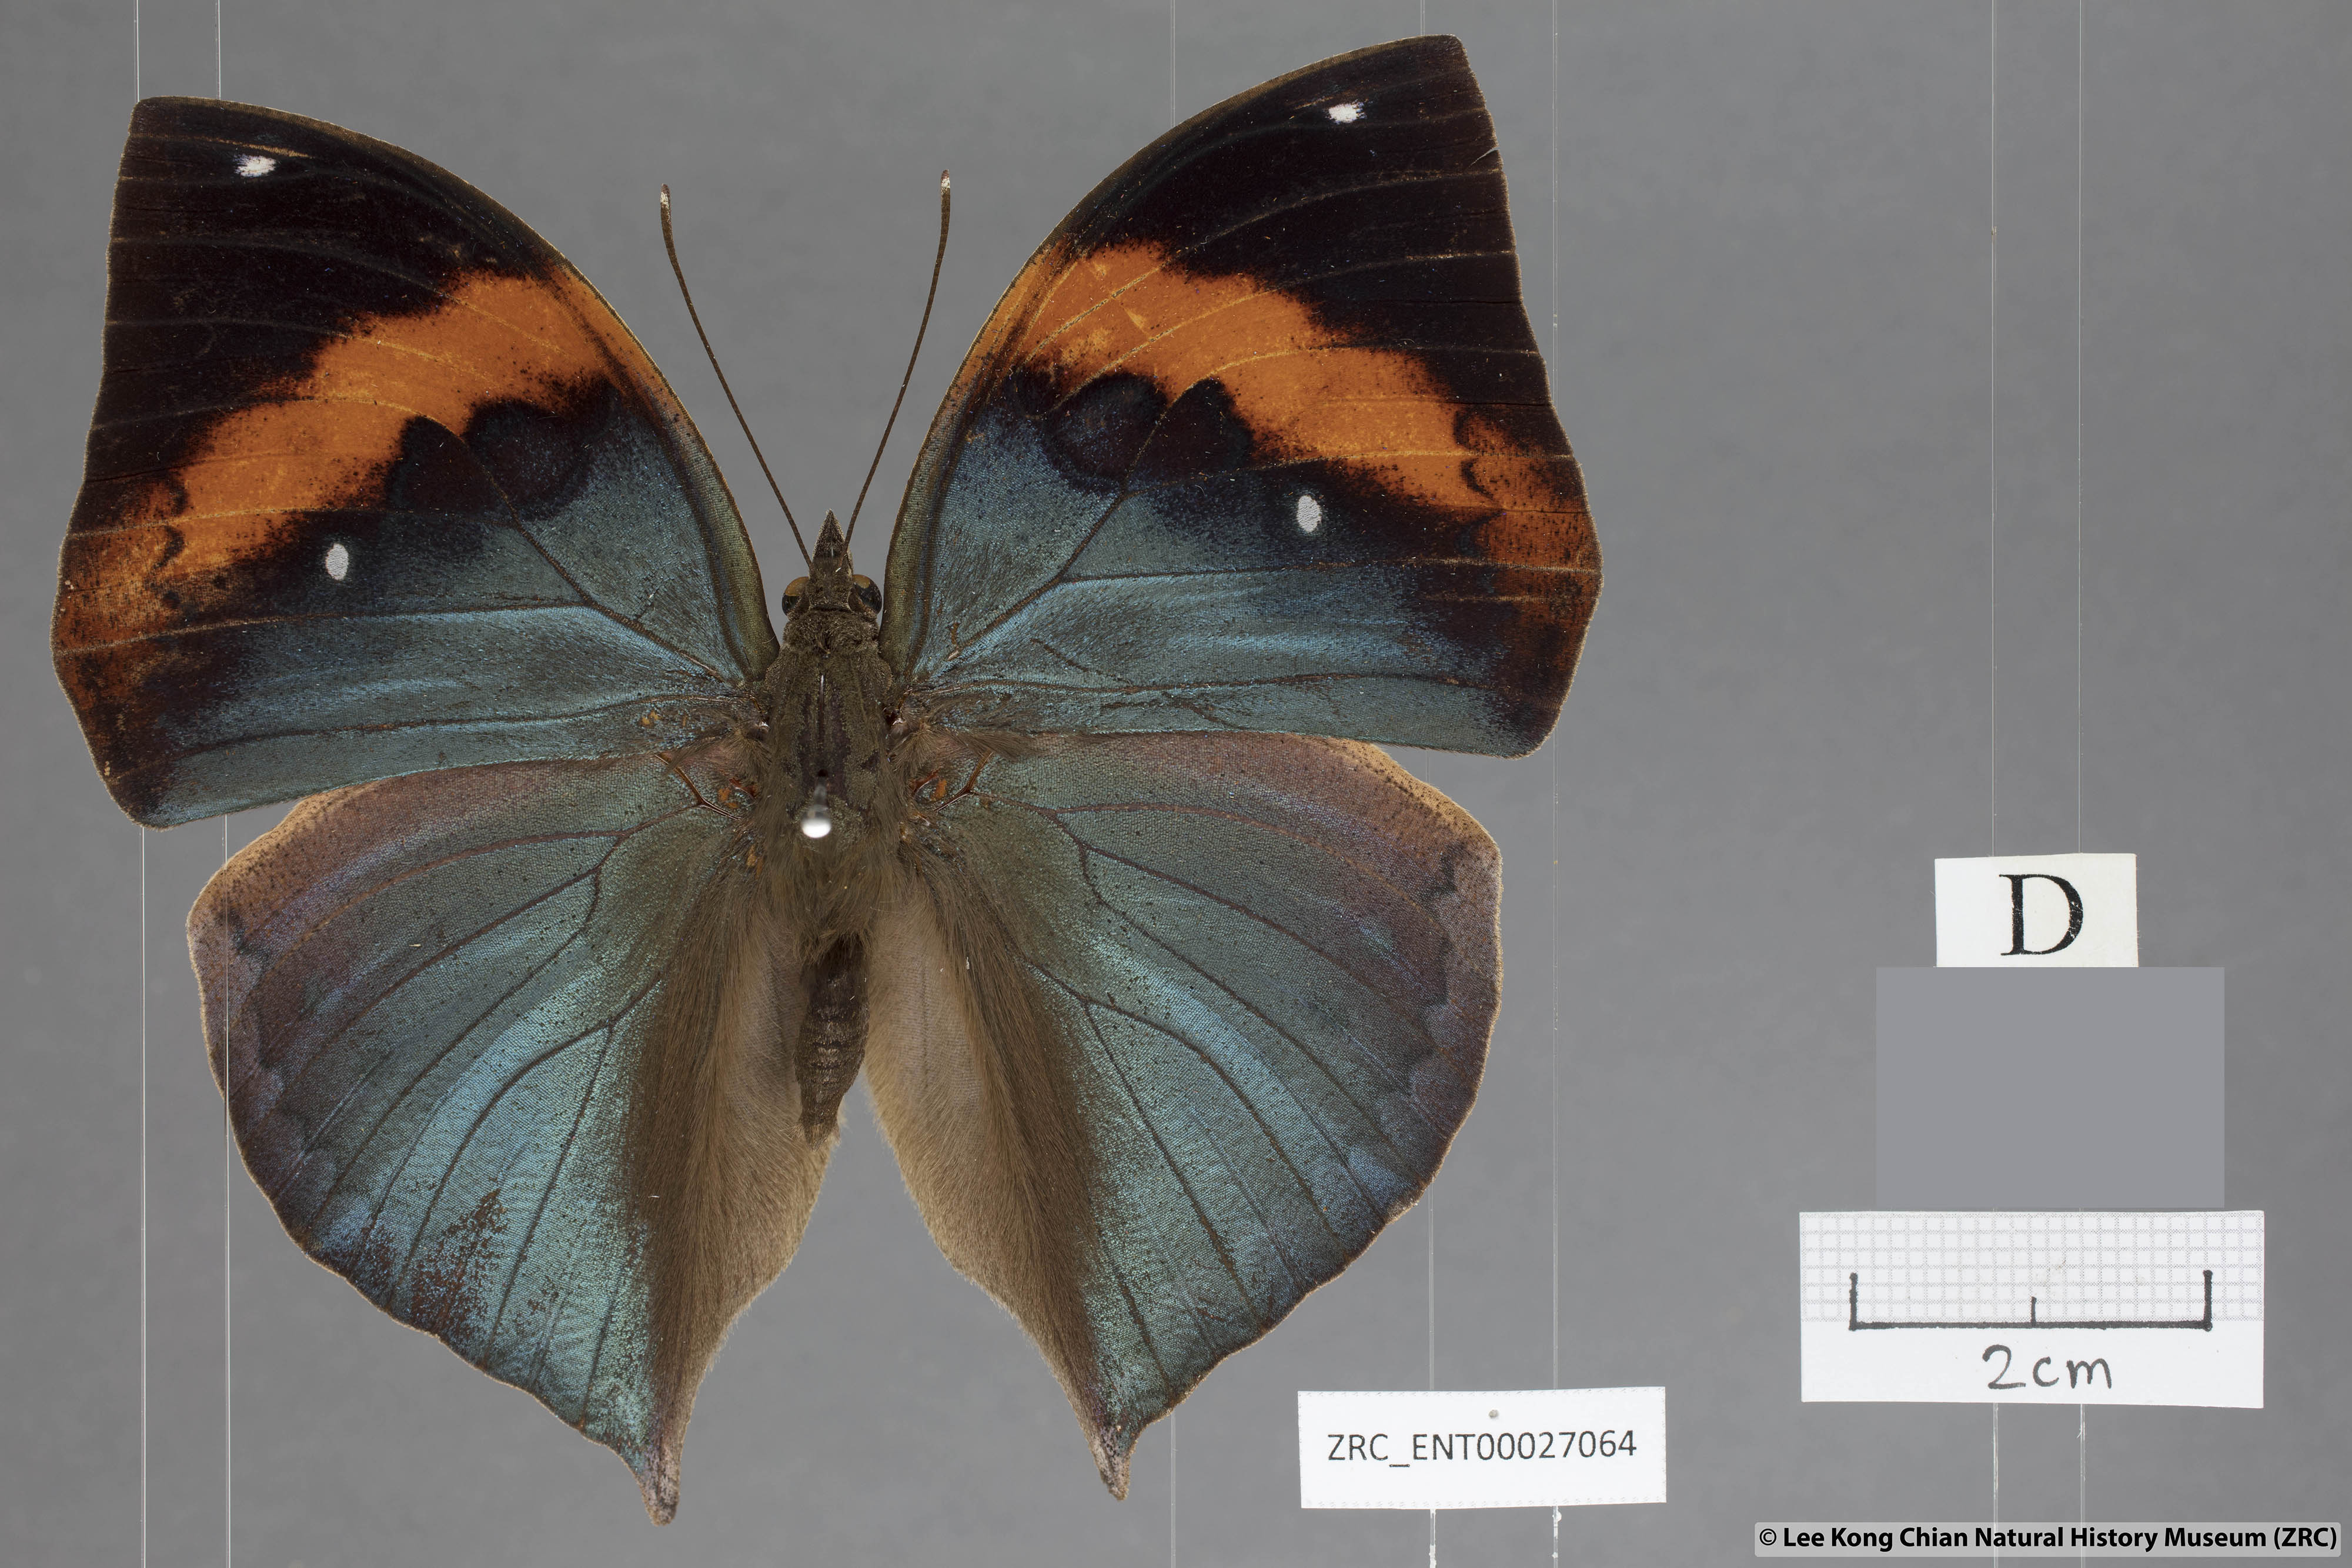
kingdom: Animalia
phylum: Arthropoda
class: Insecta
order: Lepidoptera
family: Nymphalidae
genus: Kallima
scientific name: Kallima paralekta
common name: Indian leafwing
